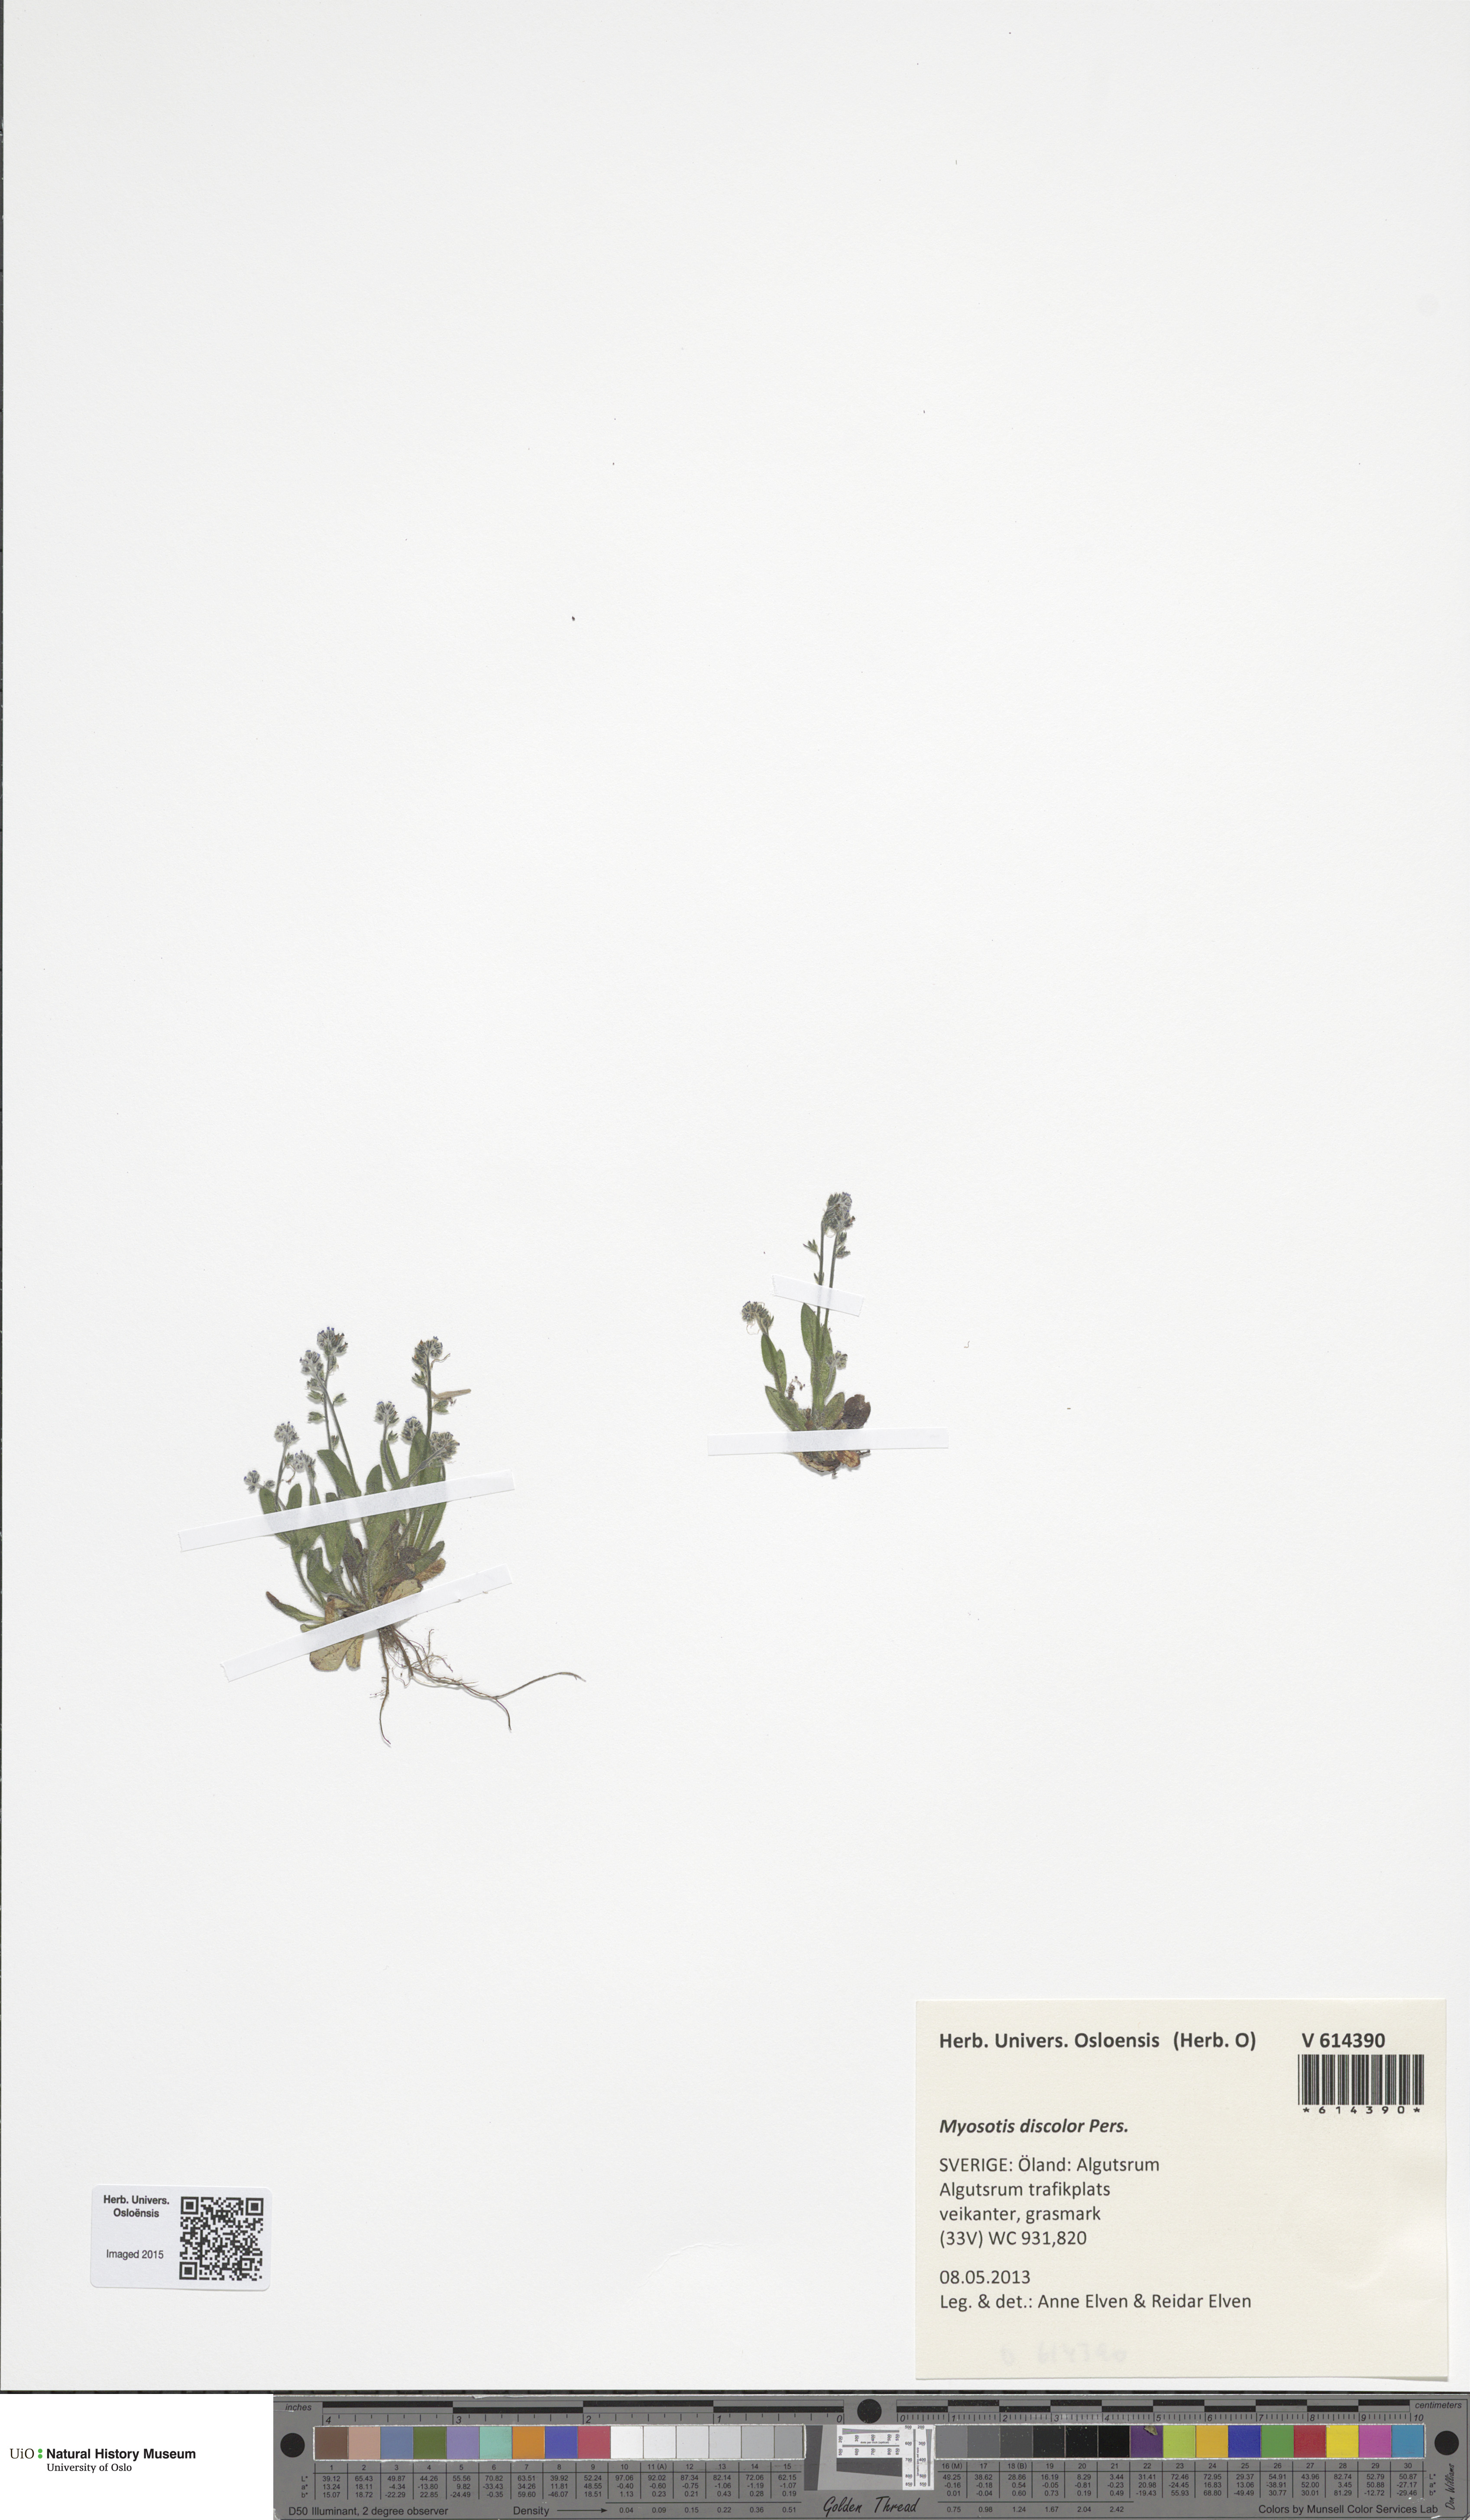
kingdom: Plantae
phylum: Tracheophyta
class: Magnoliopsida
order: Boraginales
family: Boraginaceae
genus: Myosotis
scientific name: Myosotis discolor
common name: Changing forget-me-not
